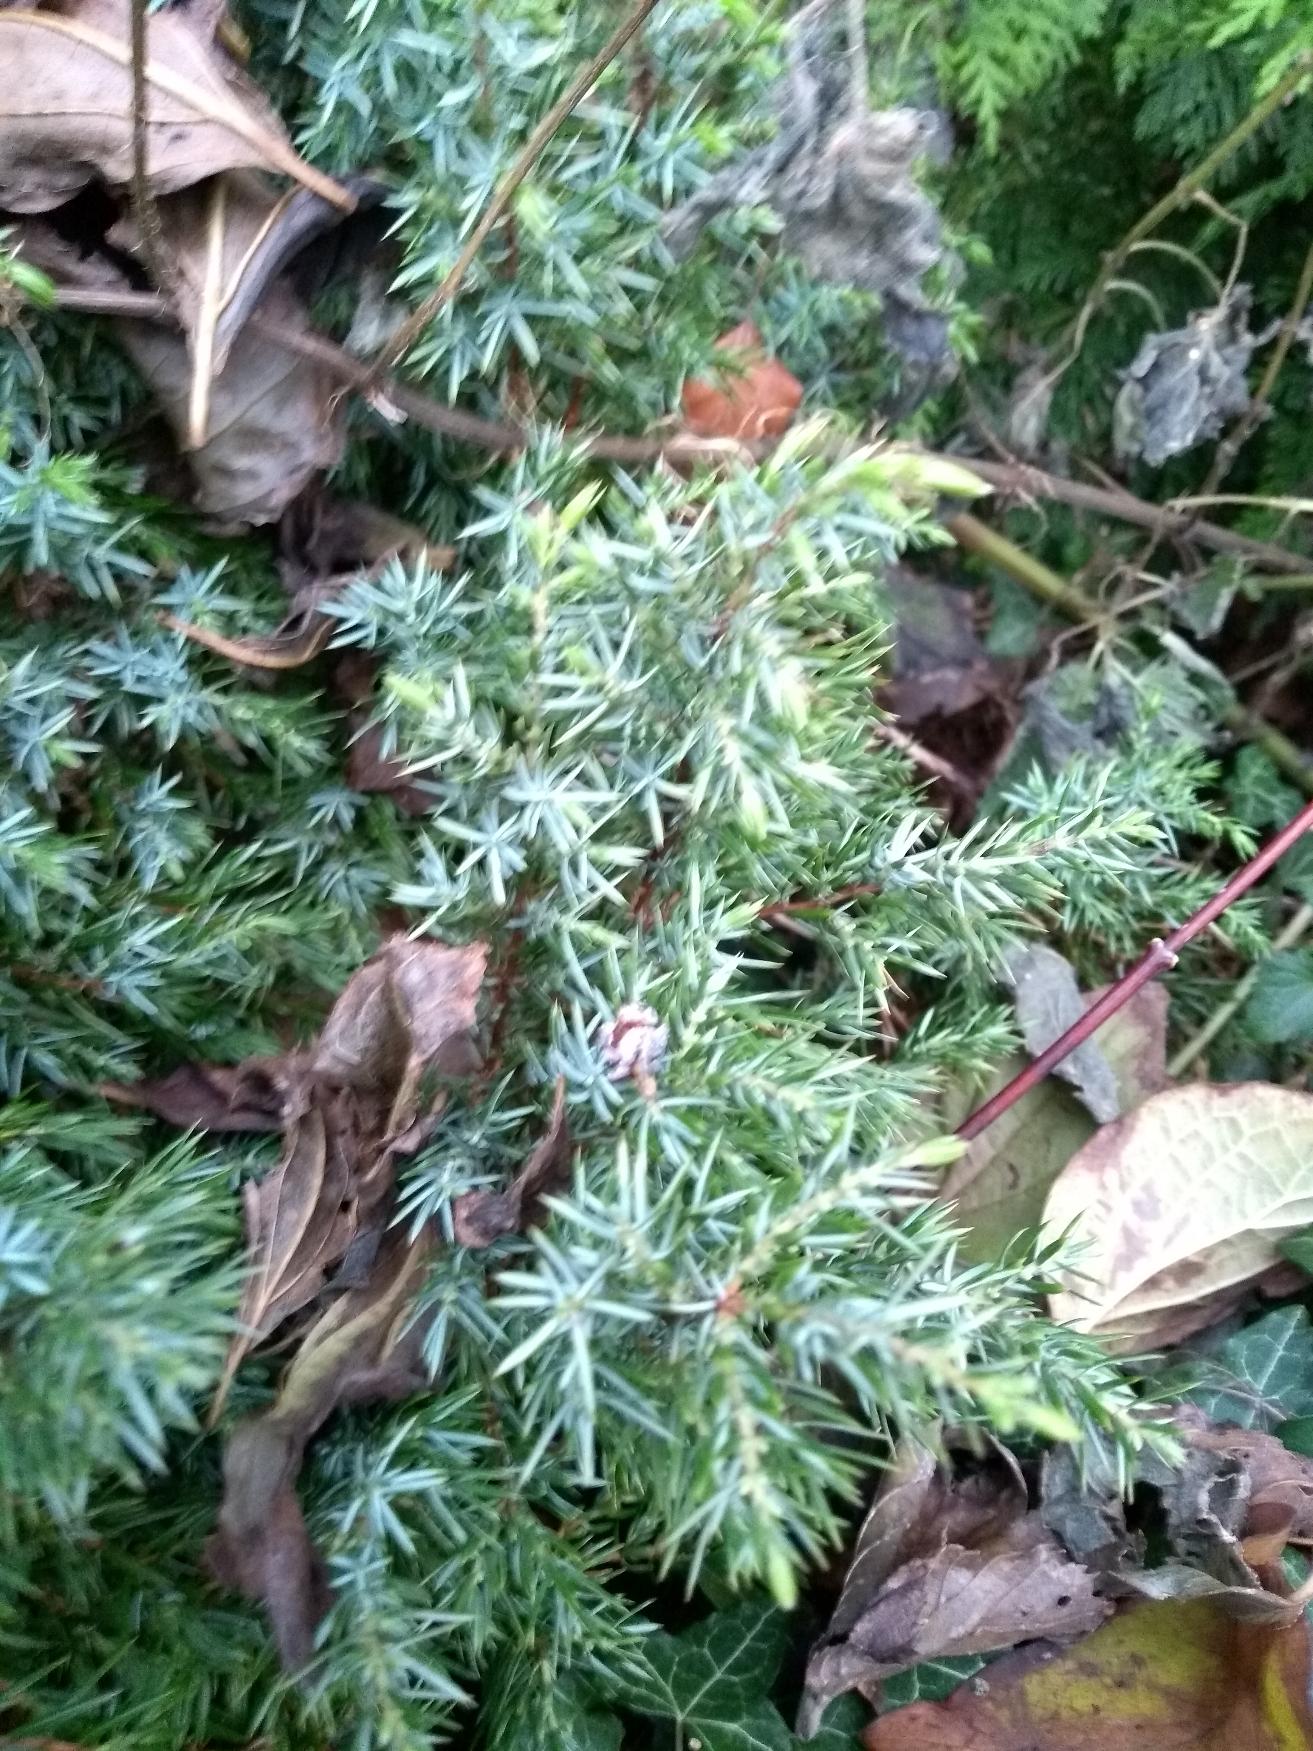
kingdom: Plantae
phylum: Tracheophyta
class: Pinopsida
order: Pinales
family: Cupressaceae
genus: Juniperus
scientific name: Juniperus communis
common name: Almindelig ene
